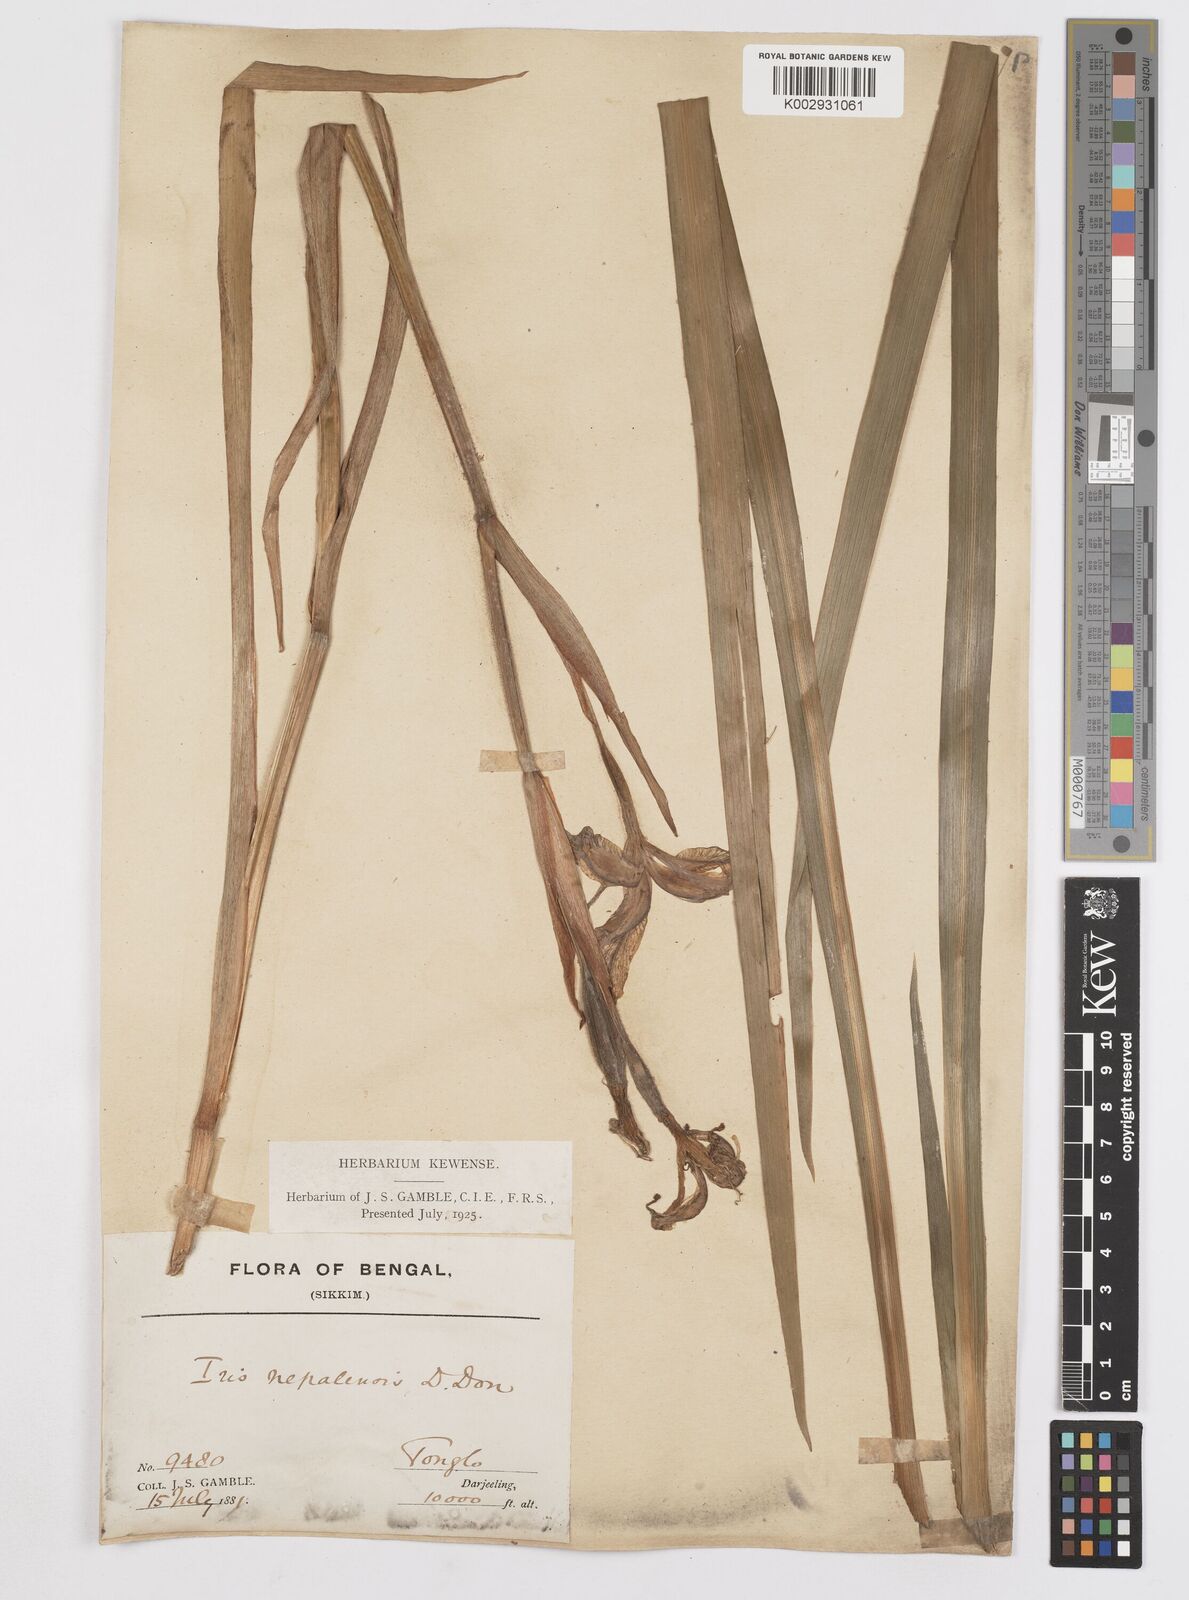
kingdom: Plantae
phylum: Tracheophyta
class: Liliopsida
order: Asparagales
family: Iridaceae
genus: Iris
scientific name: Iris clarkei
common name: Tibet iris
